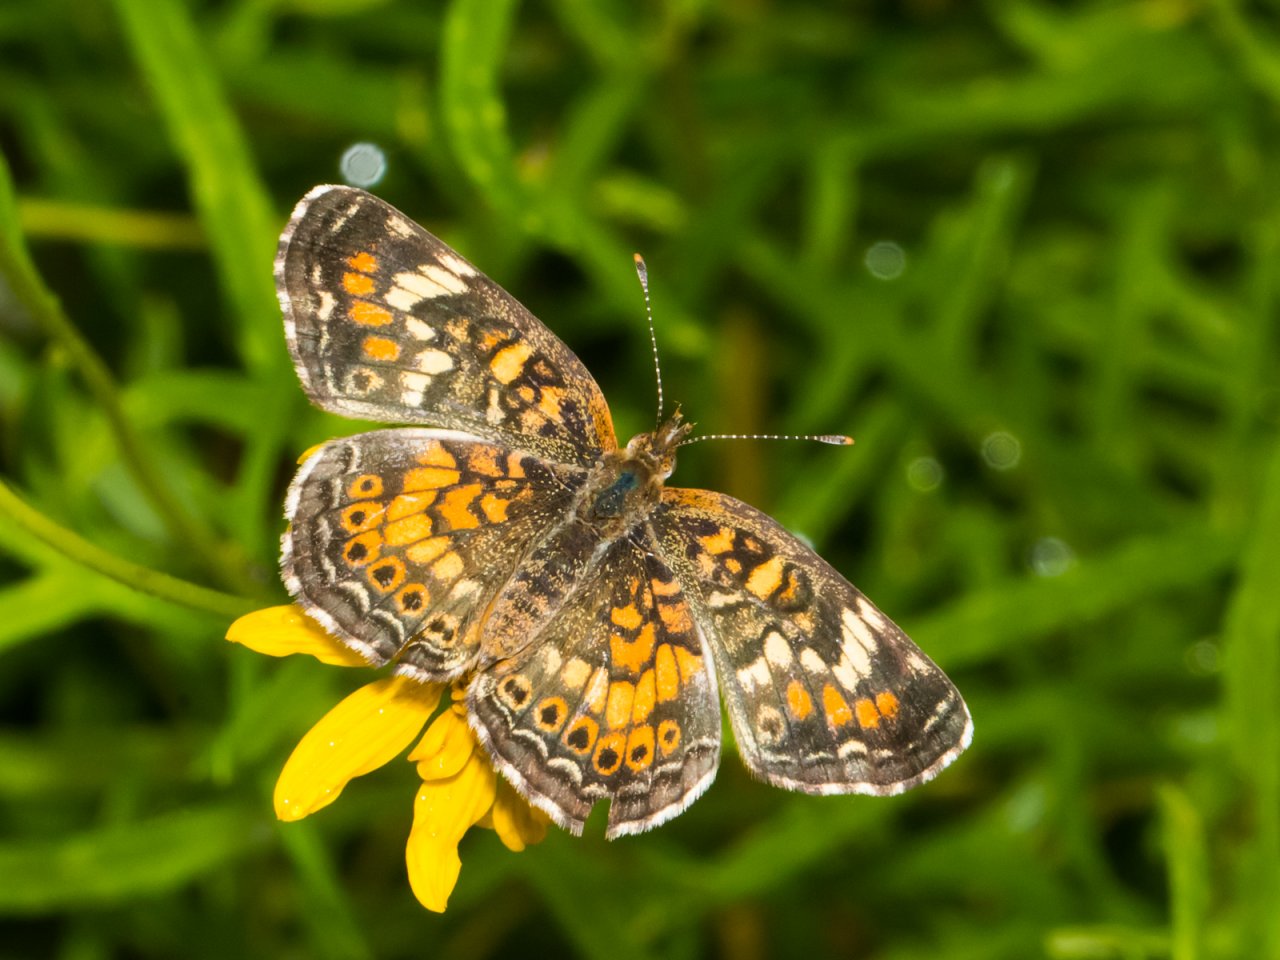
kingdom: Animalia
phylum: Arthropoda
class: Insecta
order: Lepidoptera
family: Nymphalidae
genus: Phyciodes
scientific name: Phyciodes phaon
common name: Phaon Crescent
